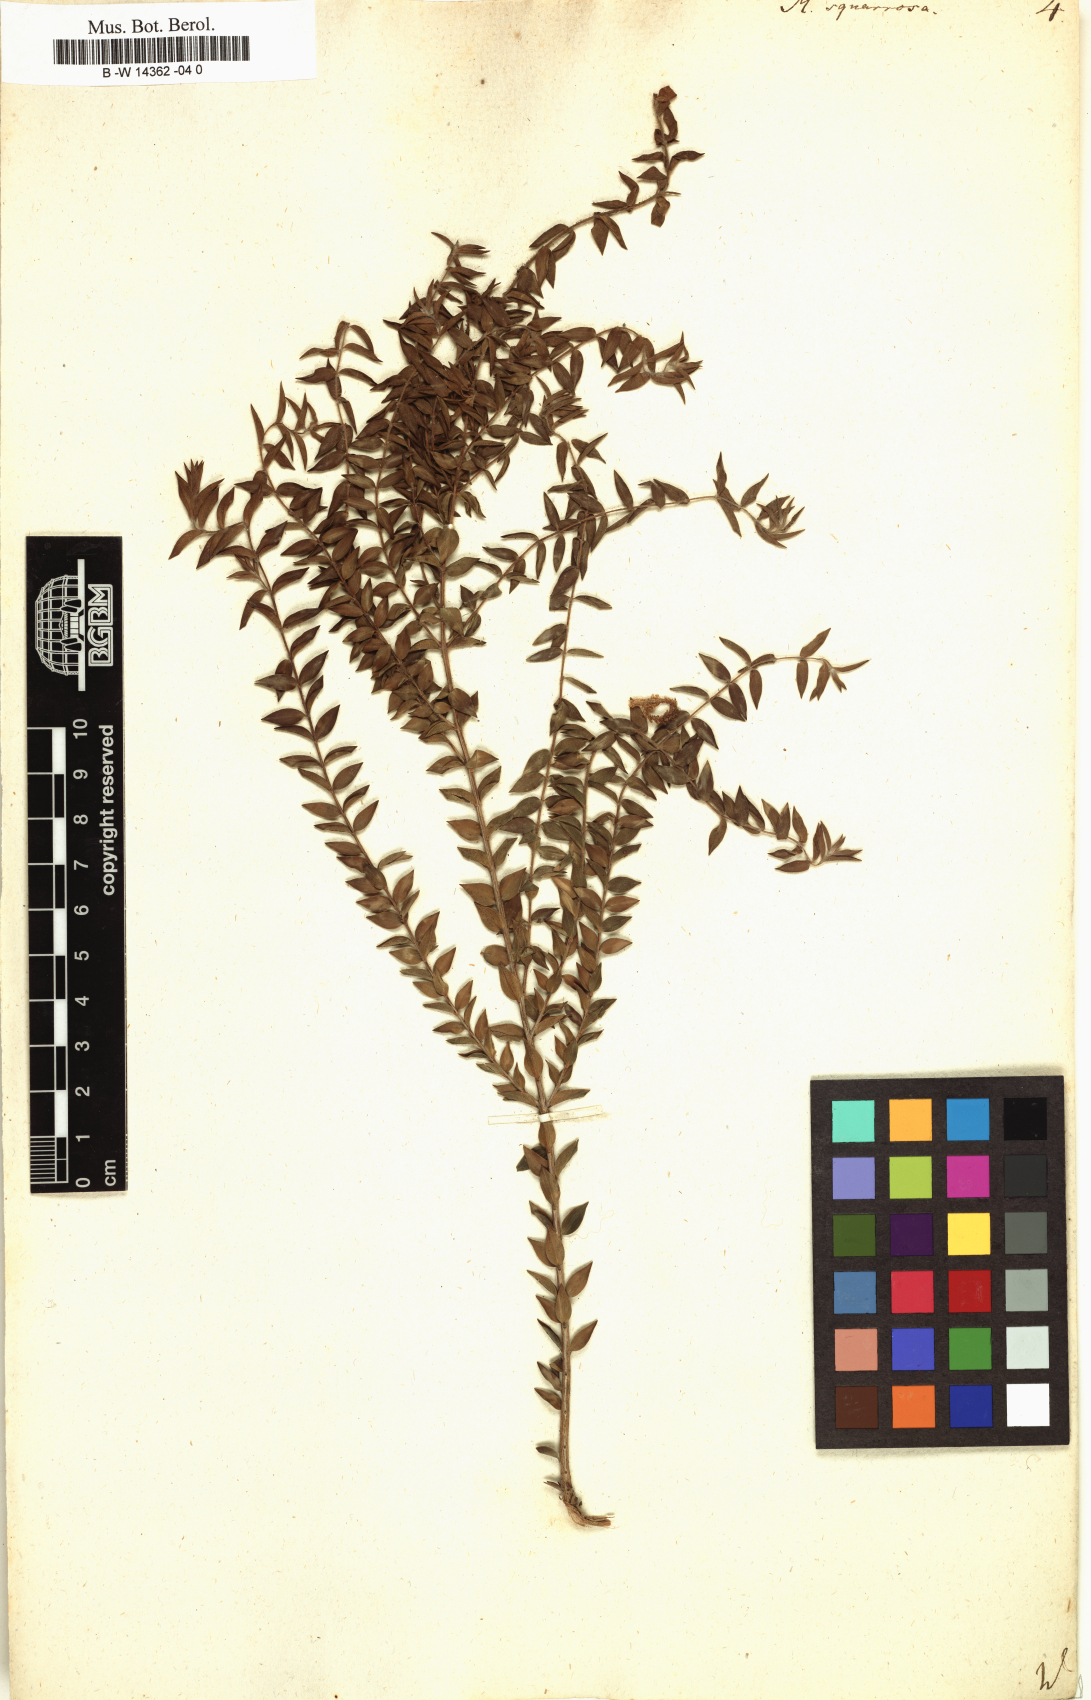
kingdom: Plantae
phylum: Tracheophyta
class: Magnoliopsida
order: Myrtales
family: Myrtaceae
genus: Melaleuca
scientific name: Melaleuca squarrosa
